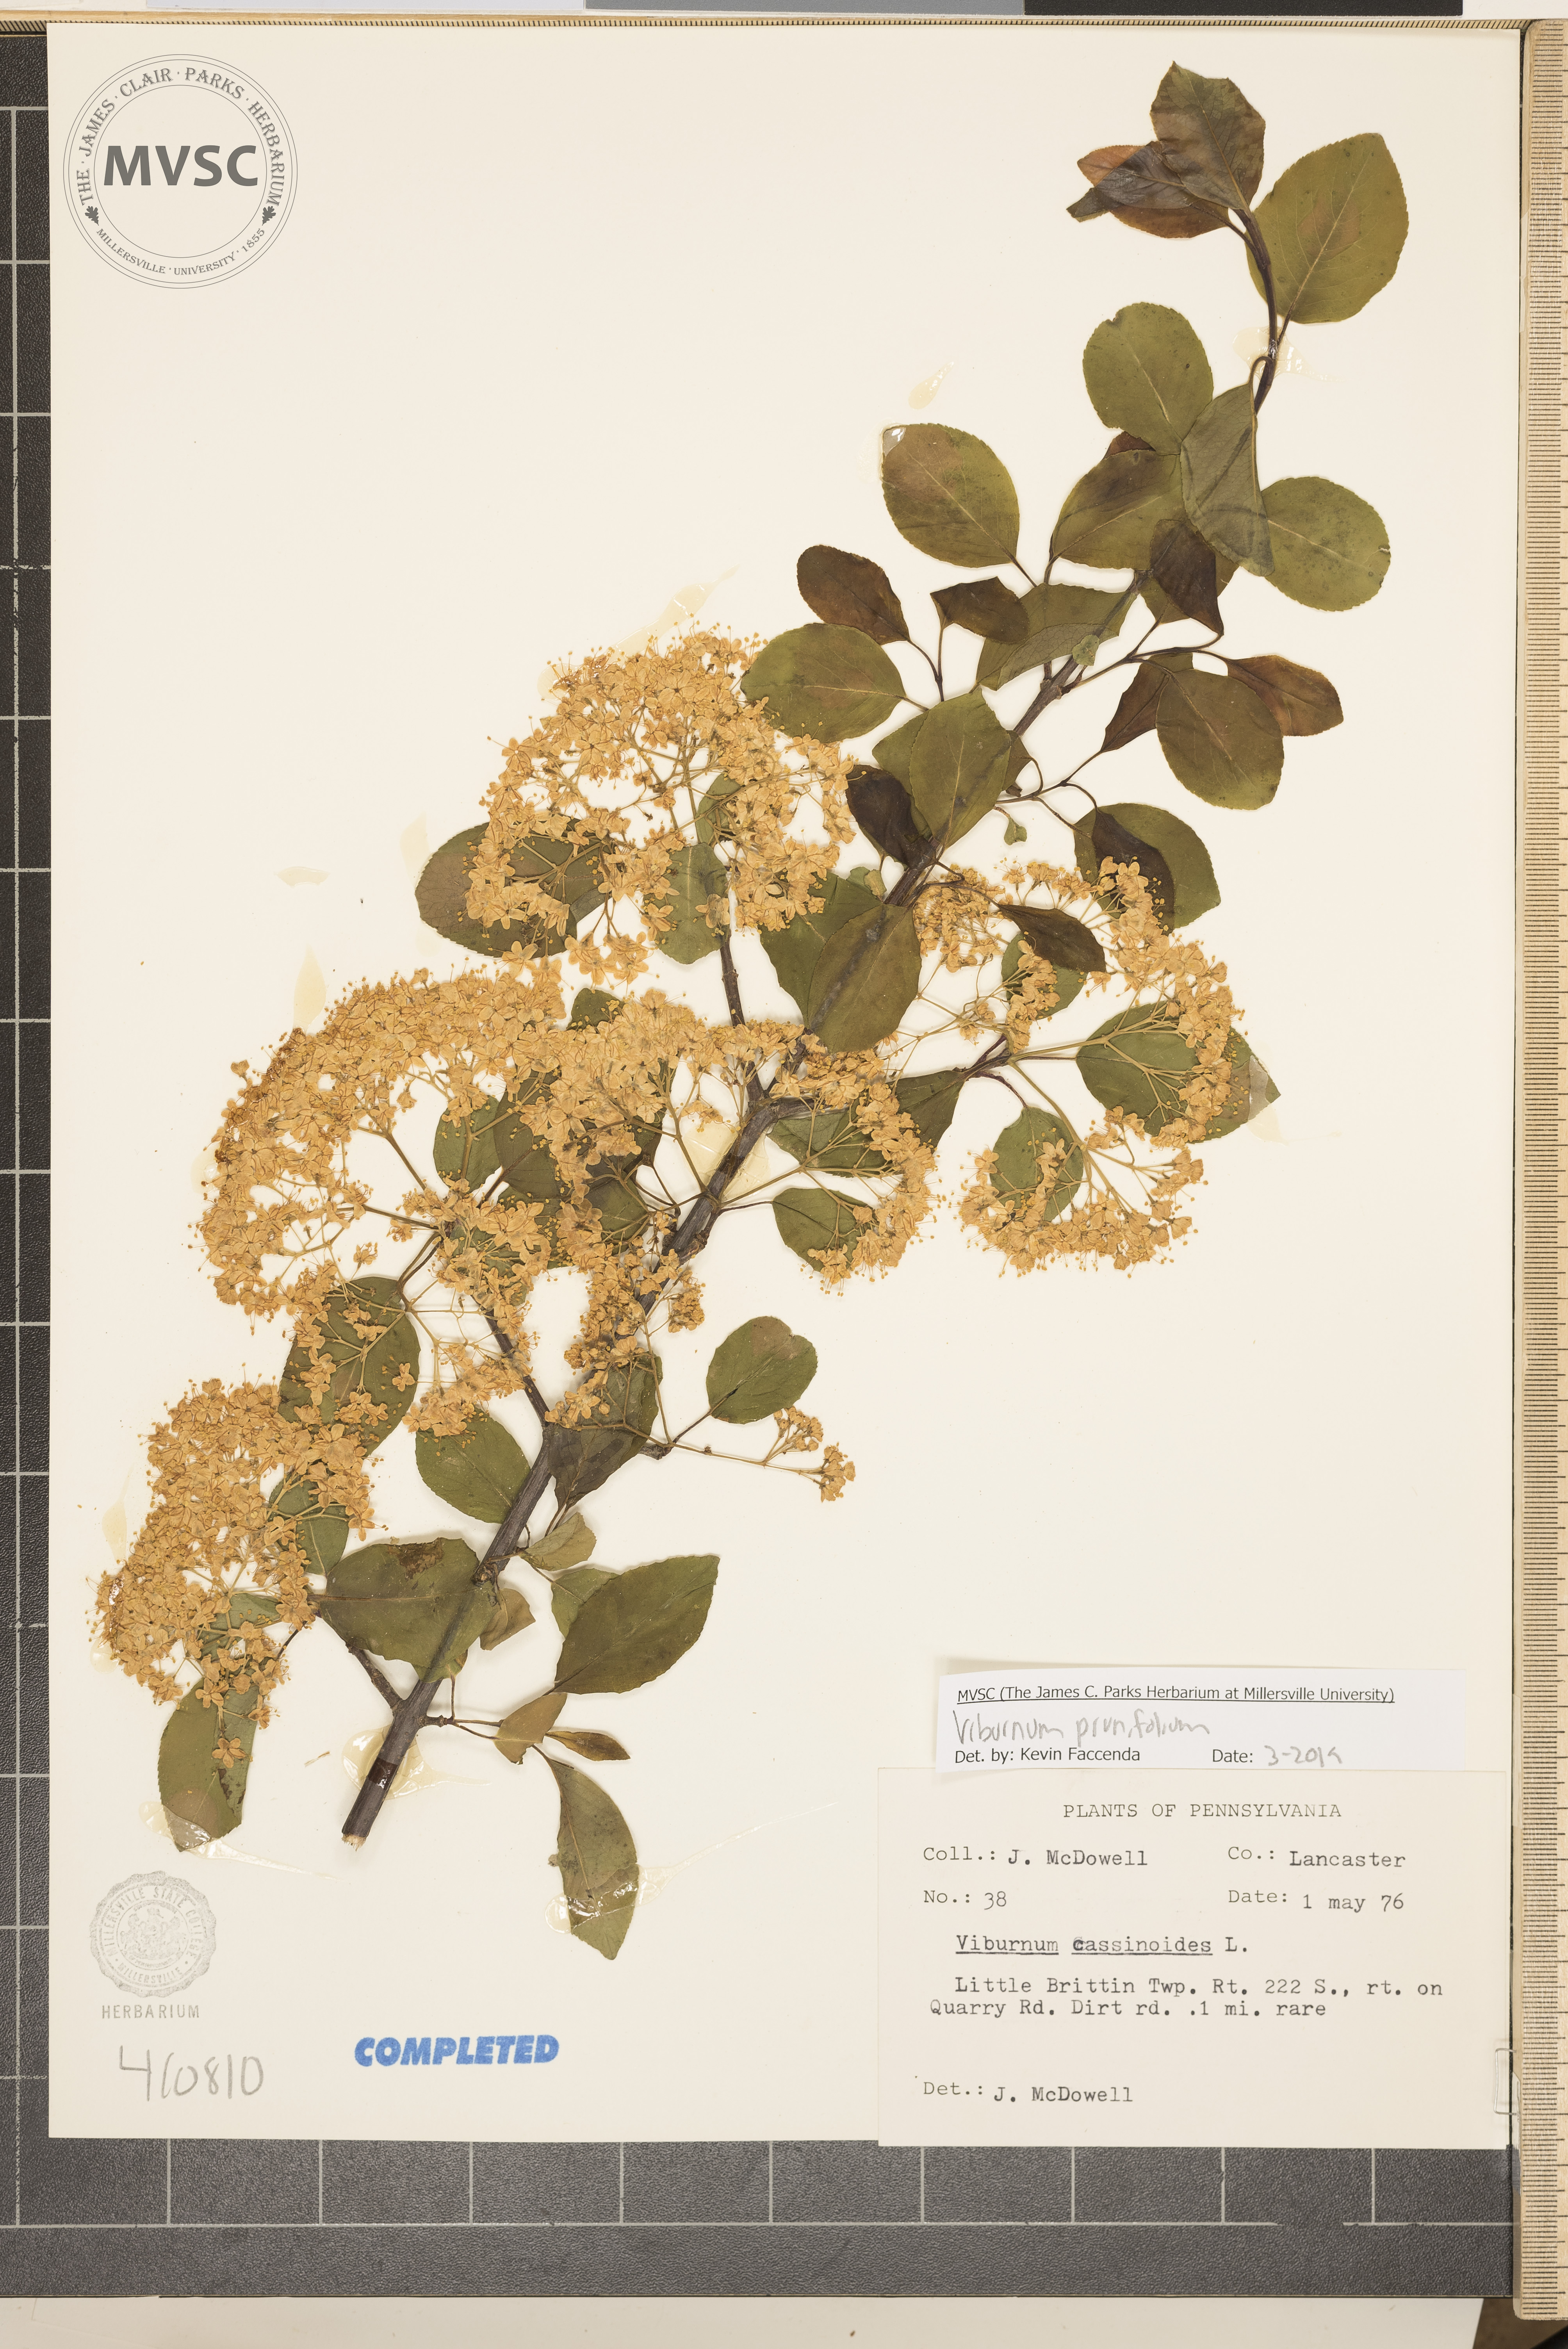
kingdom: Plantae
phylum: Tracheophyta
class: Magnoliopsida
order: Dipsacales
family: Viburnaceae
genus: Viburnum
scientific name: Viburnum prunifolium
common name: Black haw
